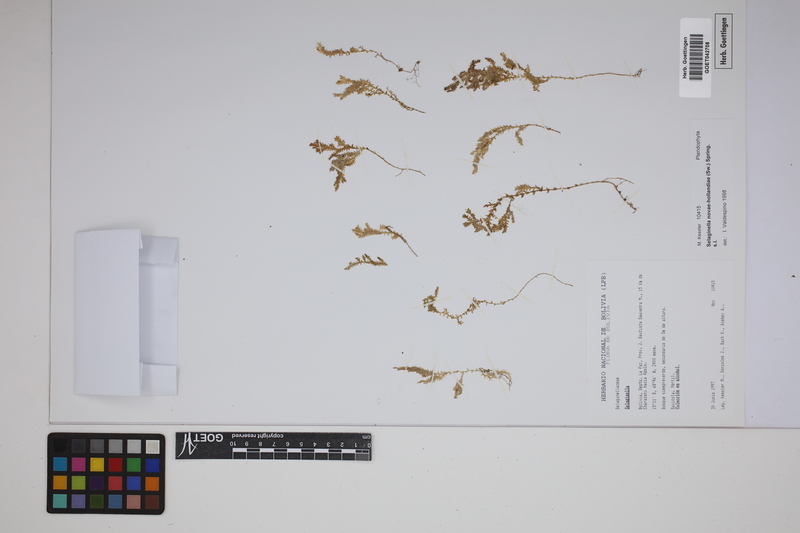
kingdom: Plantae
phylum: Tracheophyta
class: Lycopodiopsida
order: Selaginellales
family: Selaginellaceae
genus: Selaginella
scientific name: Selaginella novae-hollandiae
